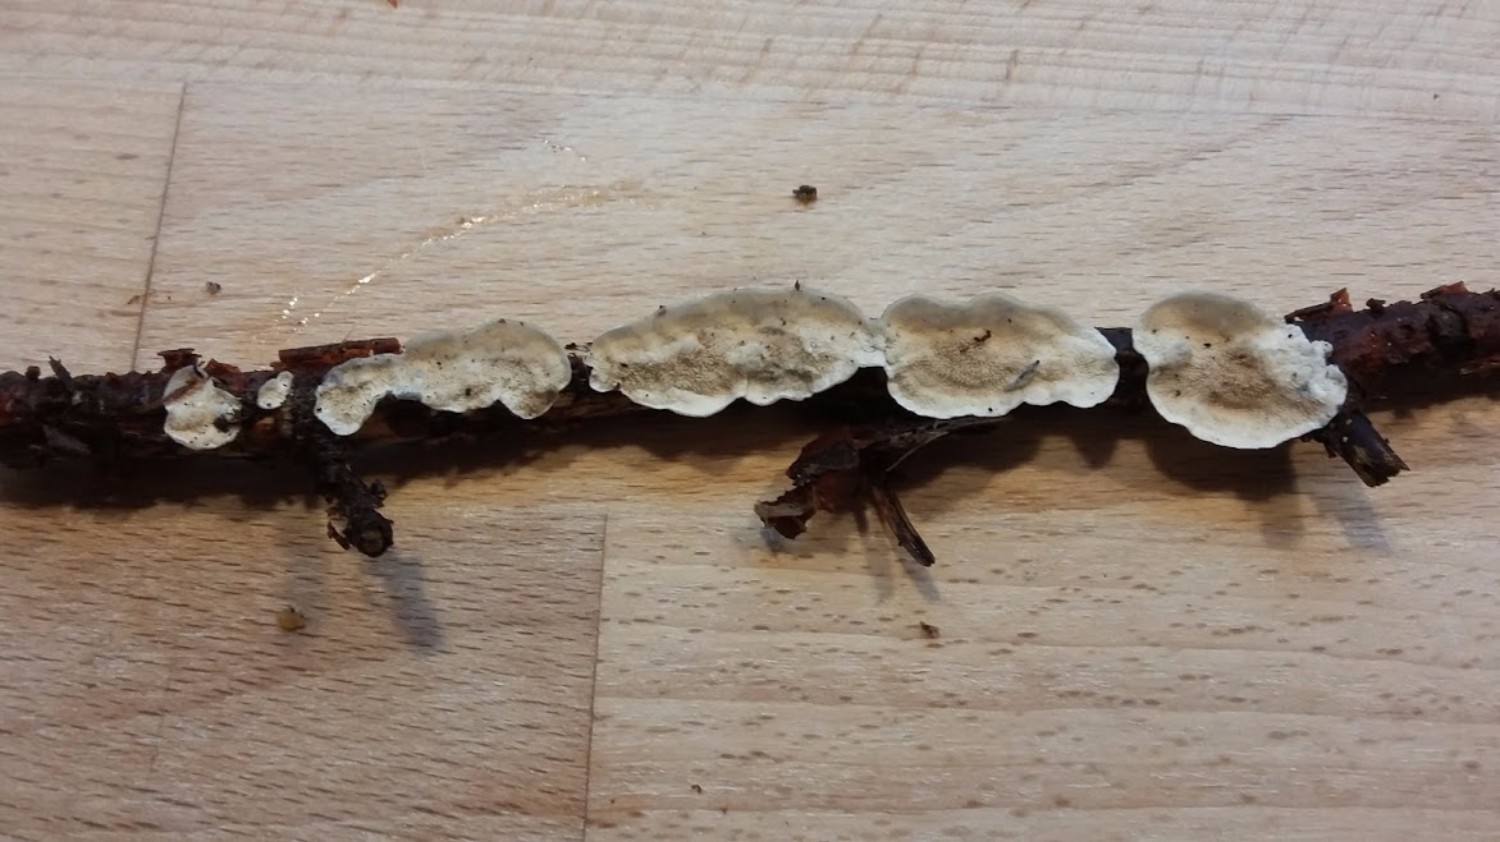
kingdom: Fungi
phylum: Basidiomycota
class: Agaricomycetes
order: Polyporales
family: Irpicaceae
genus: Byssomerulius
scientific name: Byssomerulius corium
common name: læder-åresvamp
